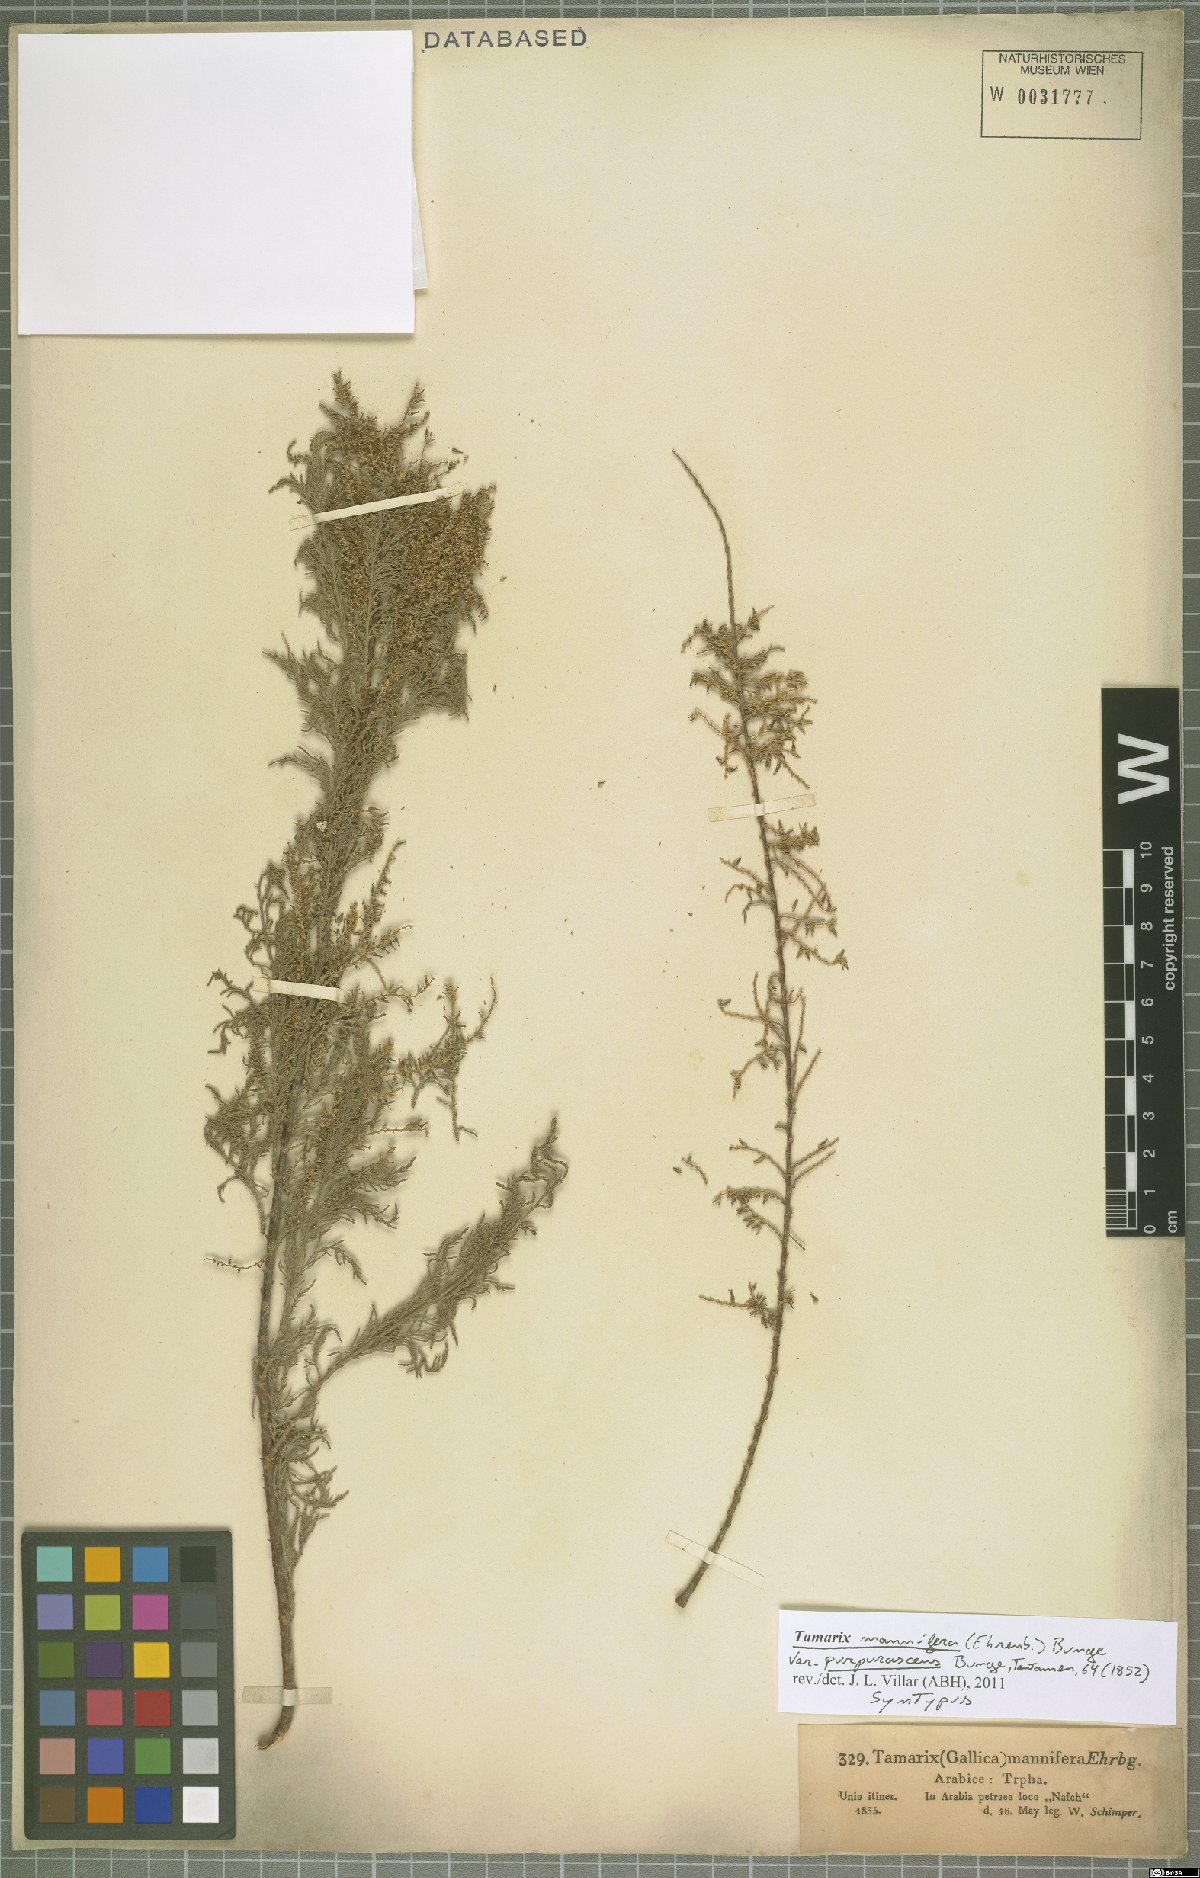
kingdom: Plantae
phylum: Tracheophyta
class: Magnoliopsida
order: Caryophyllales
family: Tamaricaceae
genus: Tamarix
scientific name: Tamarix senegalensis
